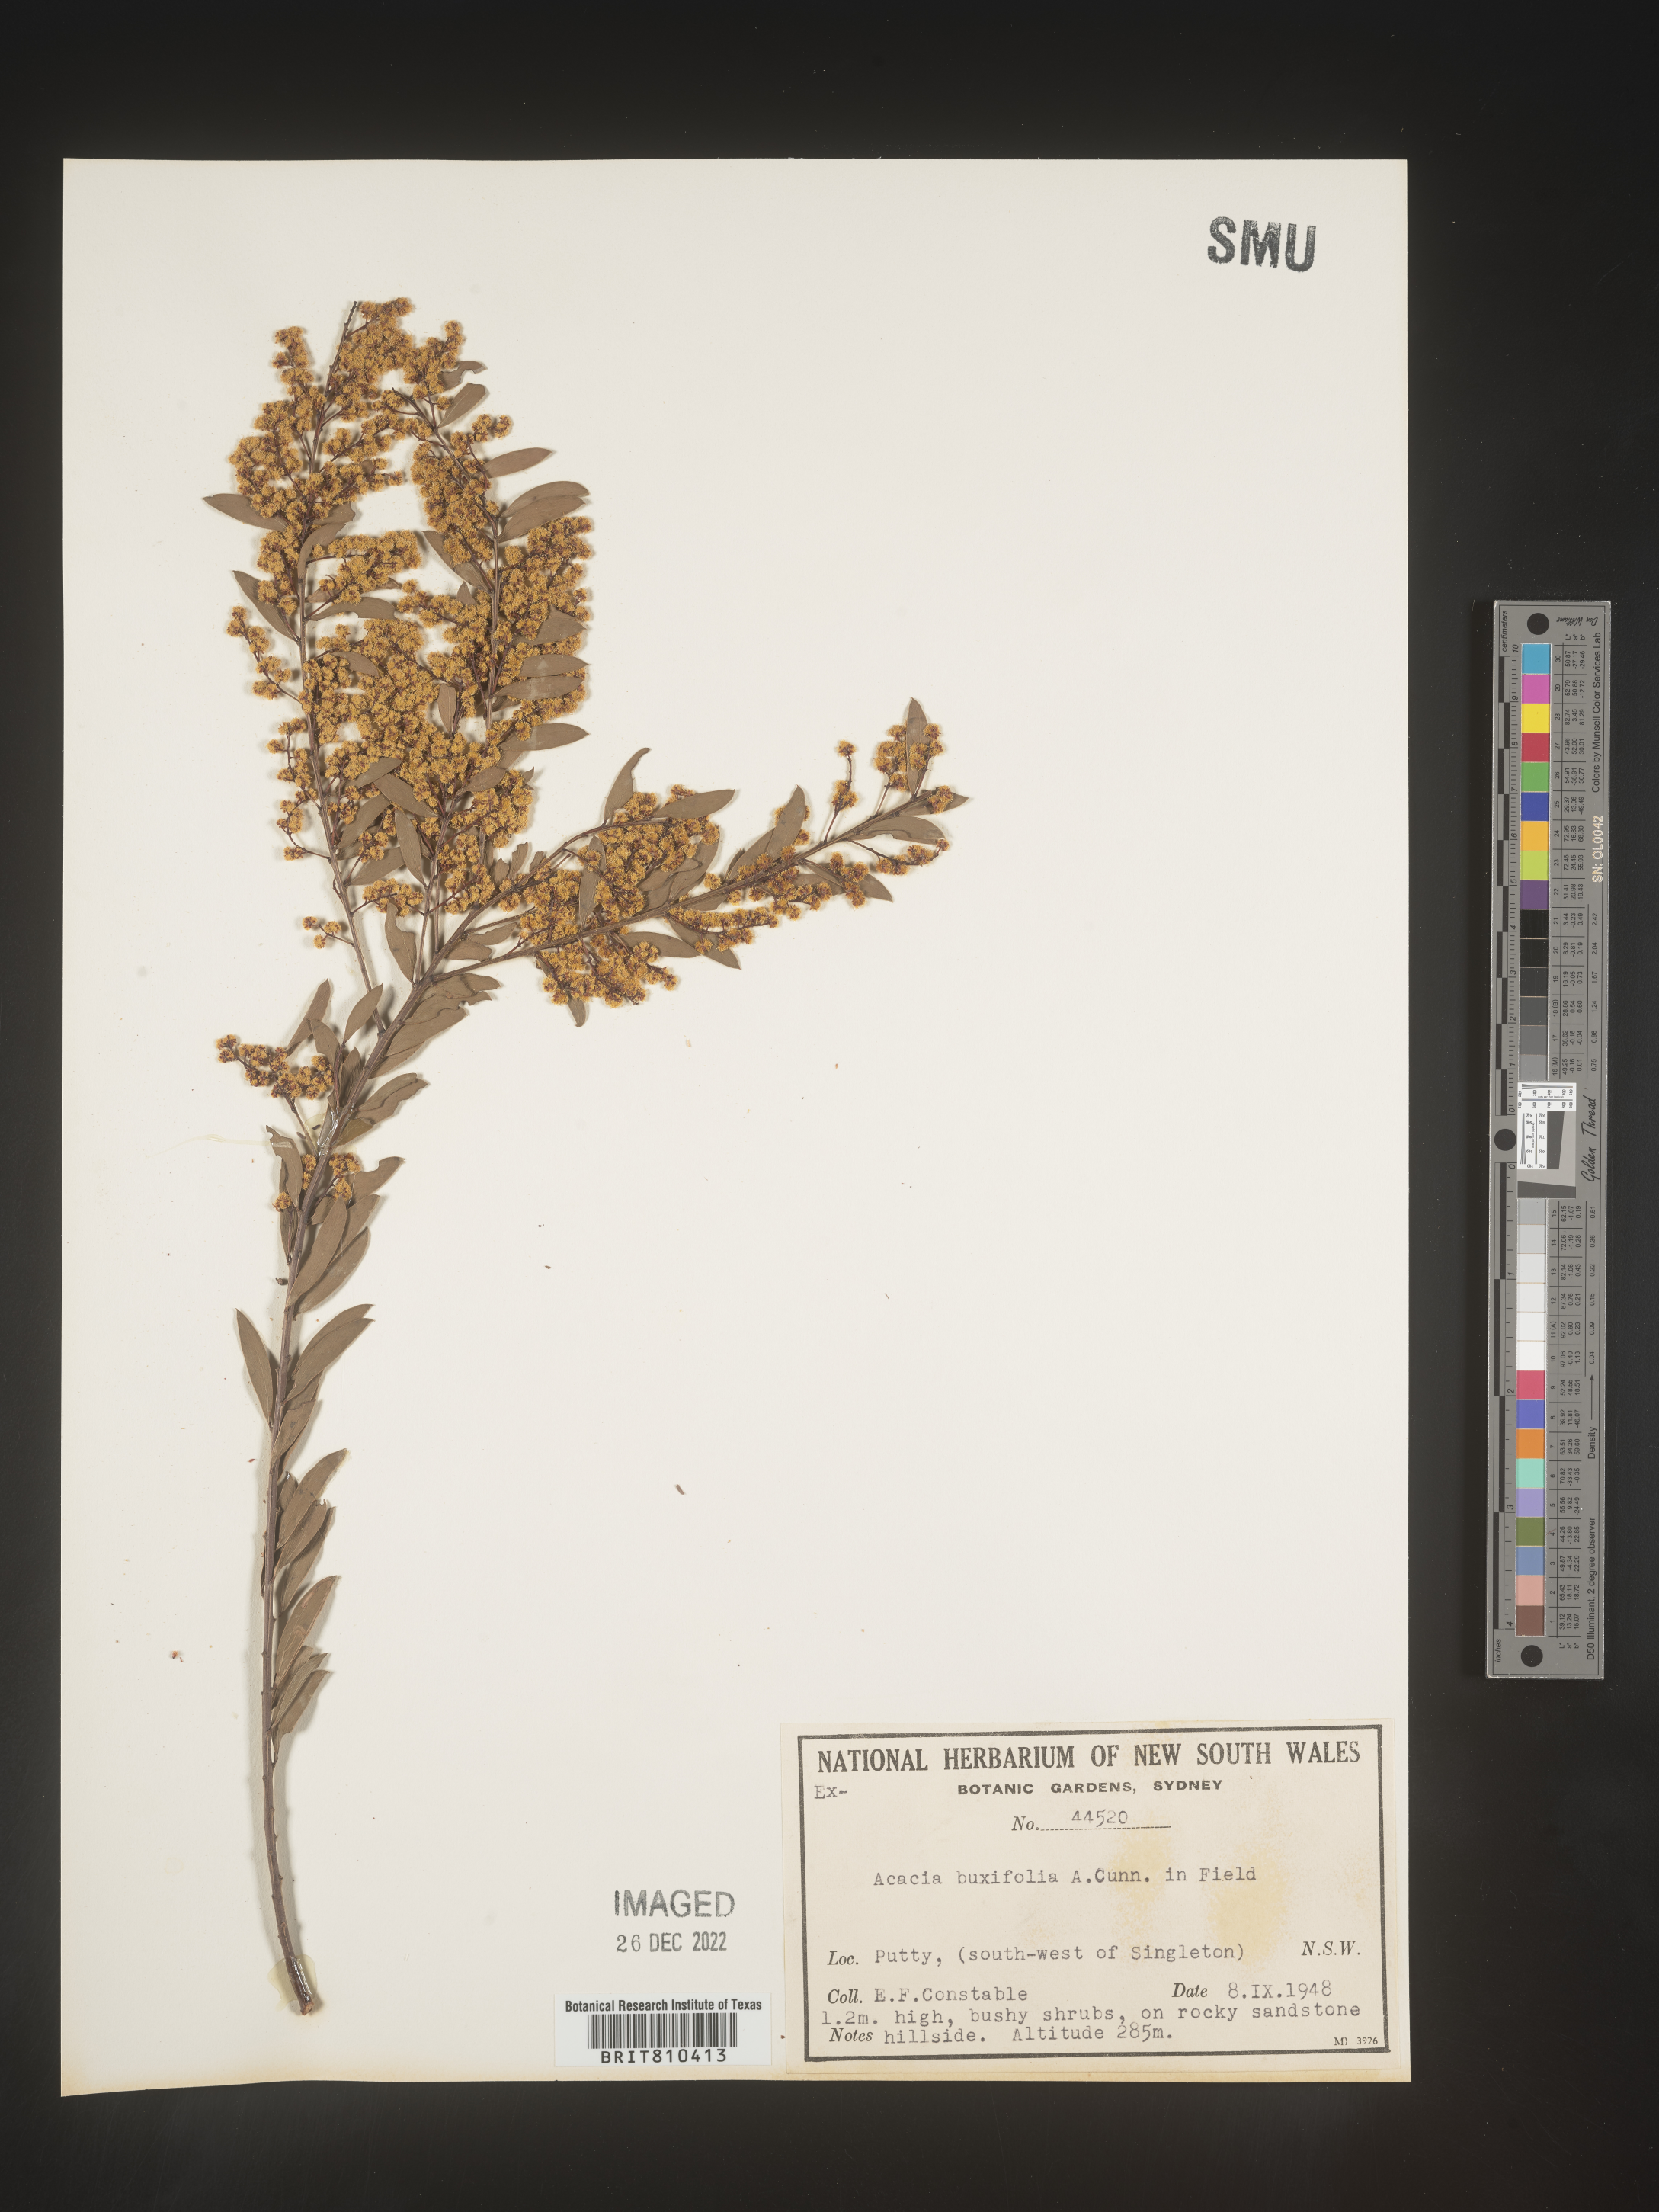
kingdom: Plantae
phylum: Tracheophyta
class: Magnoliopsida
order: Fabales
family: Fabaceae
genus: Acacia
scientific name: Acacia
